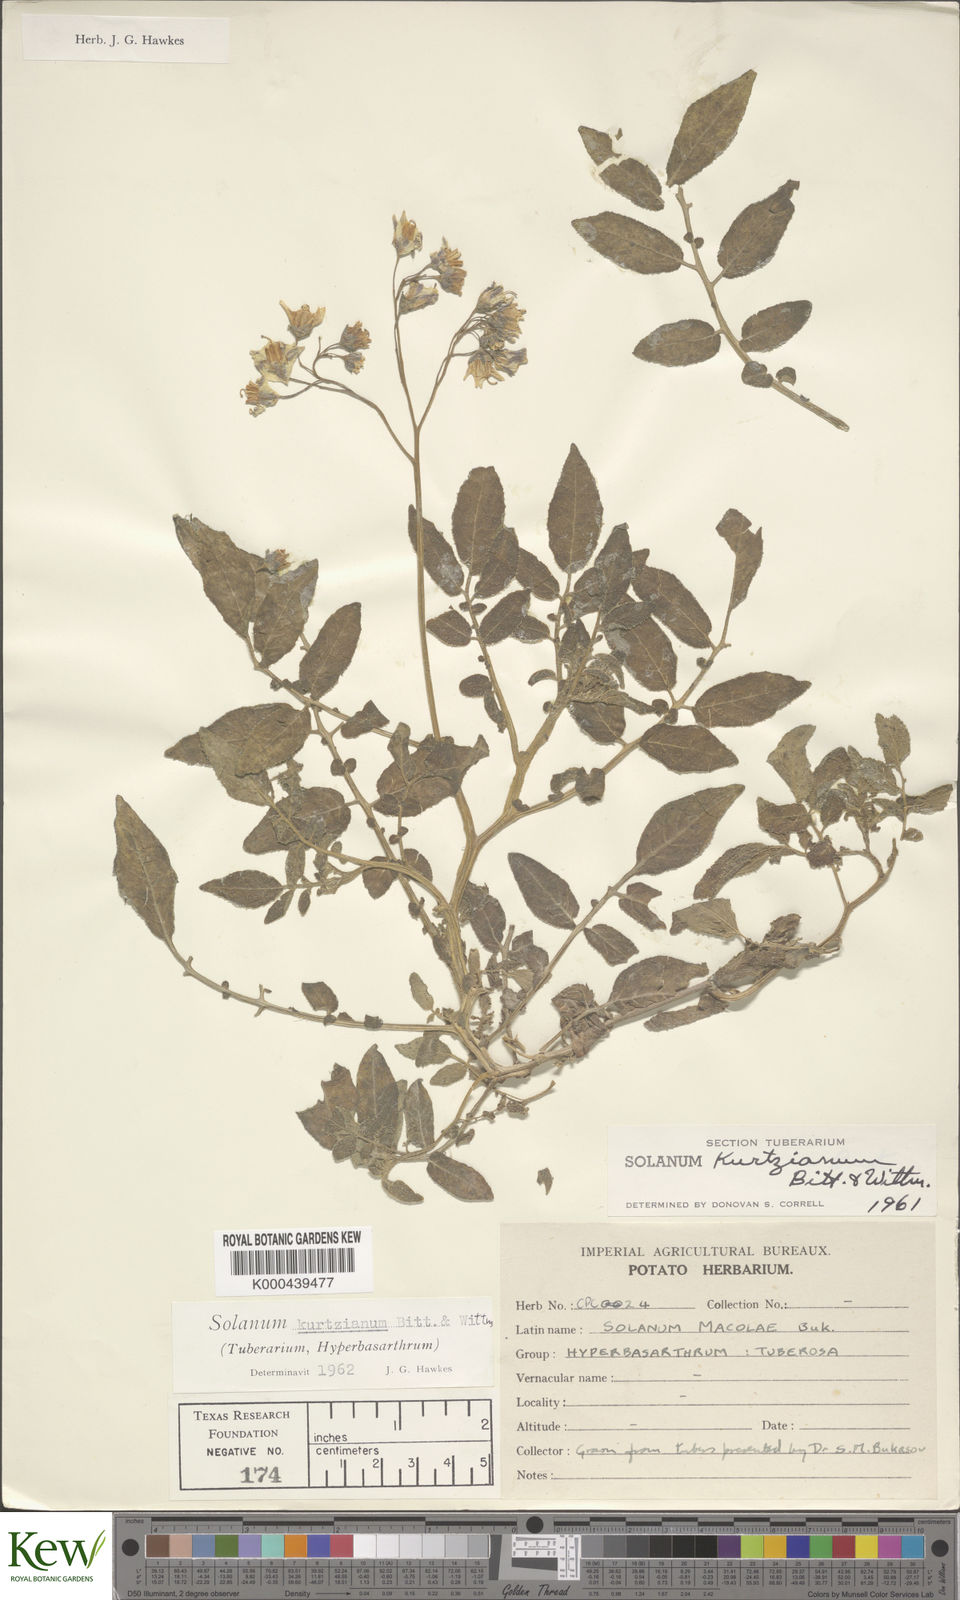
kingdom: Plantae
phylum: Tracheophyta
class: Magnoliopsida
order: Solanales
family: Solanaceae
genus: Solanum
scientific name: Solanum kurtzianum
